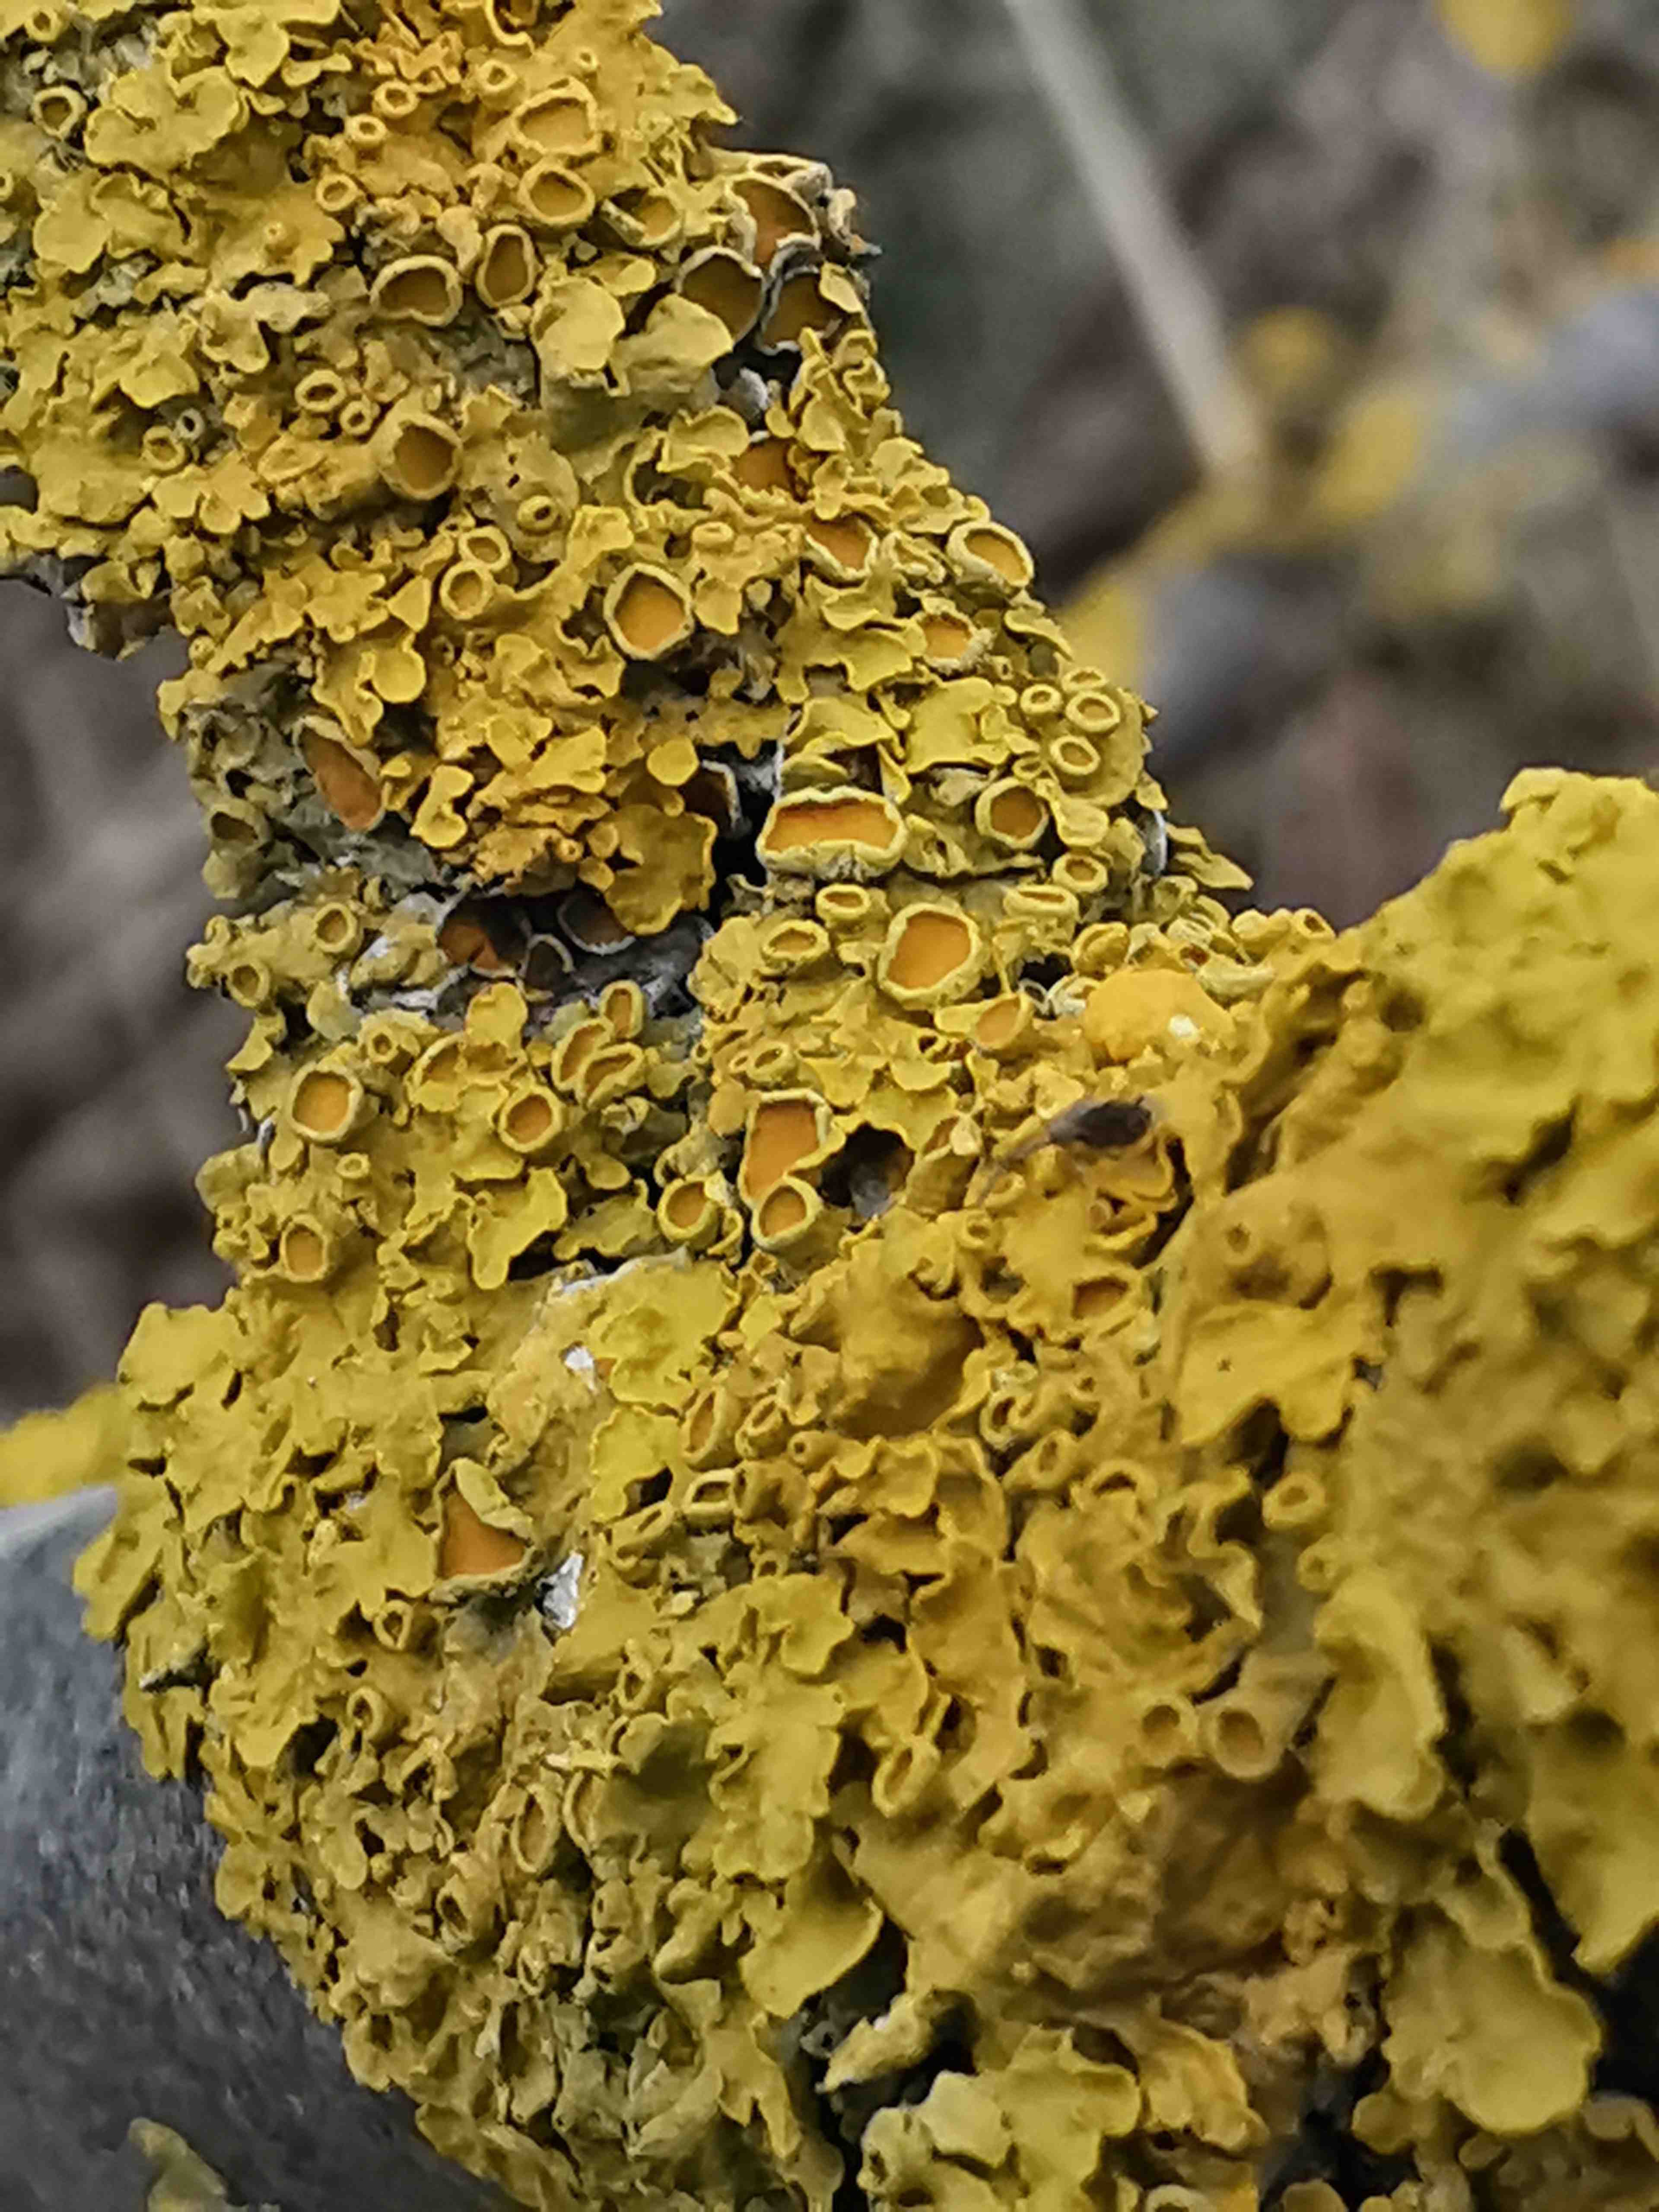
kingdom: Fungi
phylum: Ascomycota
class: Lecanoromycetes
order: Teloschistales
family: Teloschistaceae
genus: Xanthoria
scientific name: Xanthoria parietina
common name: almindelig væggelav
